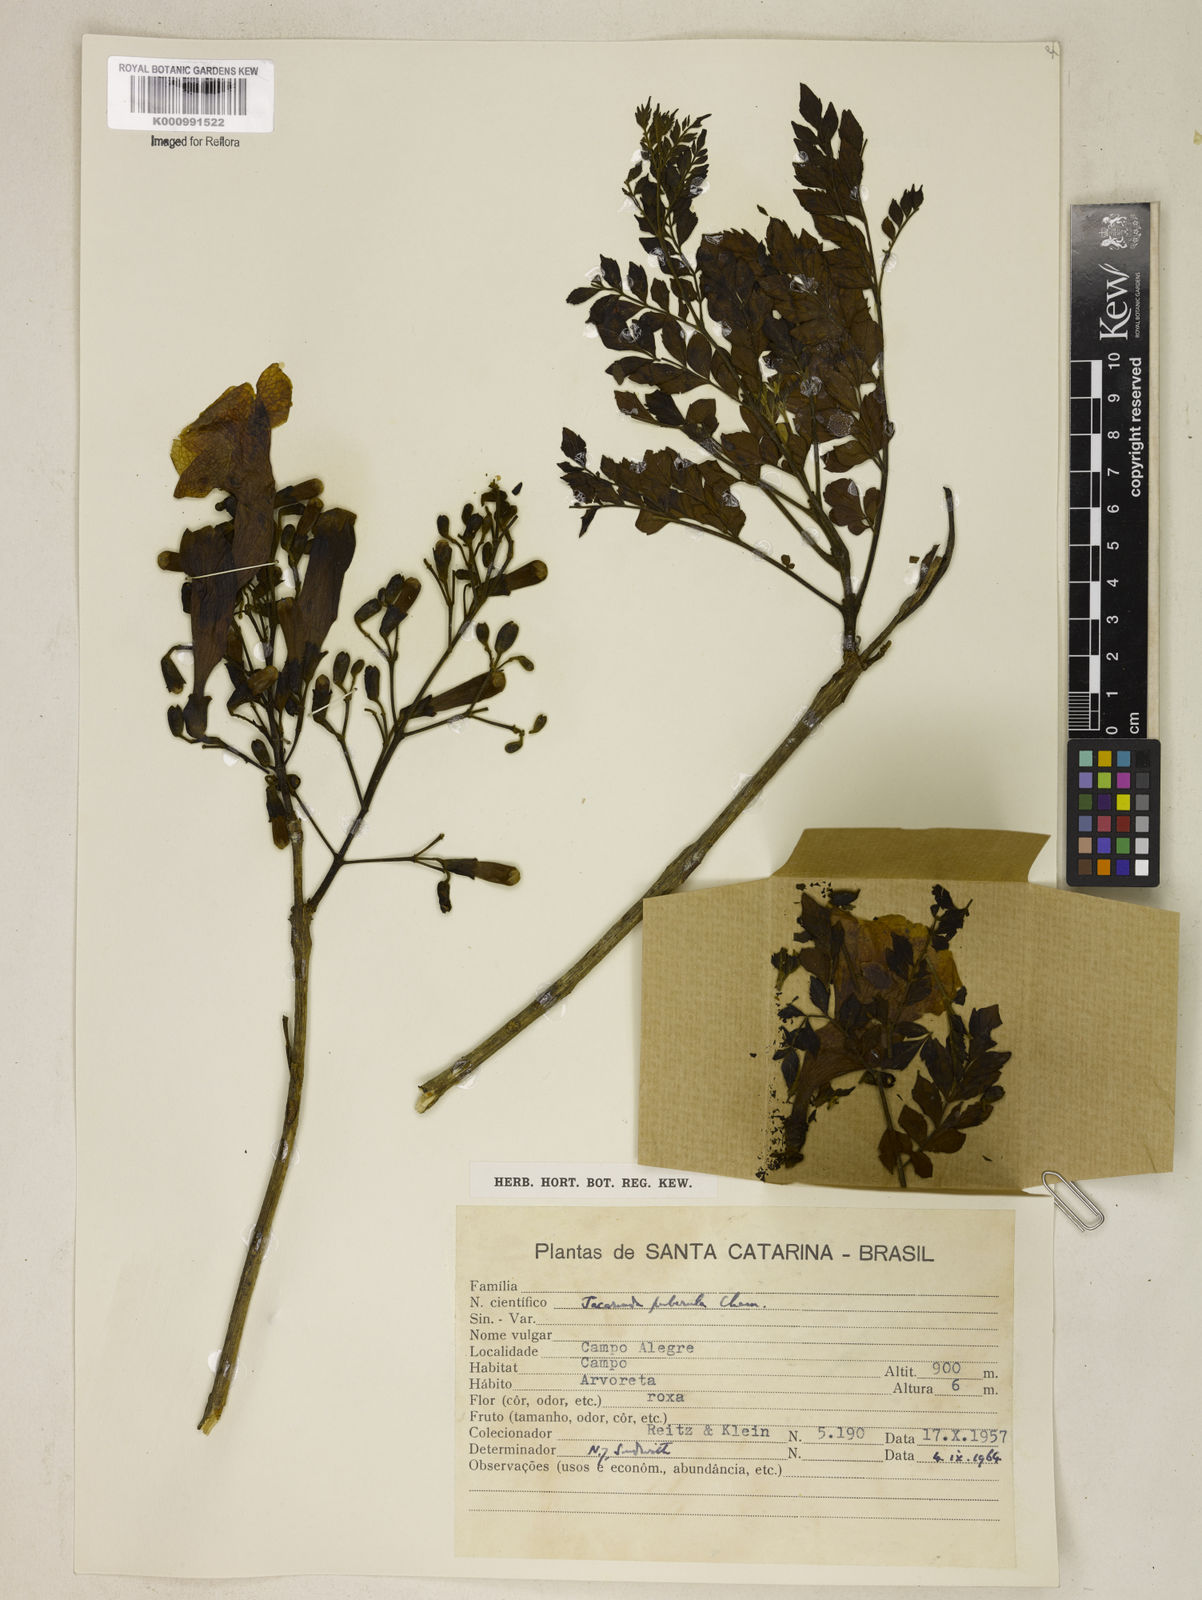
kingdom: Plantae
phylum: Tracheophyta
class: Magnoliopsida
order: Lamiales
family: Bignoniaceae
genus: Jacaranda
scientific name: Jacaranda puberula
